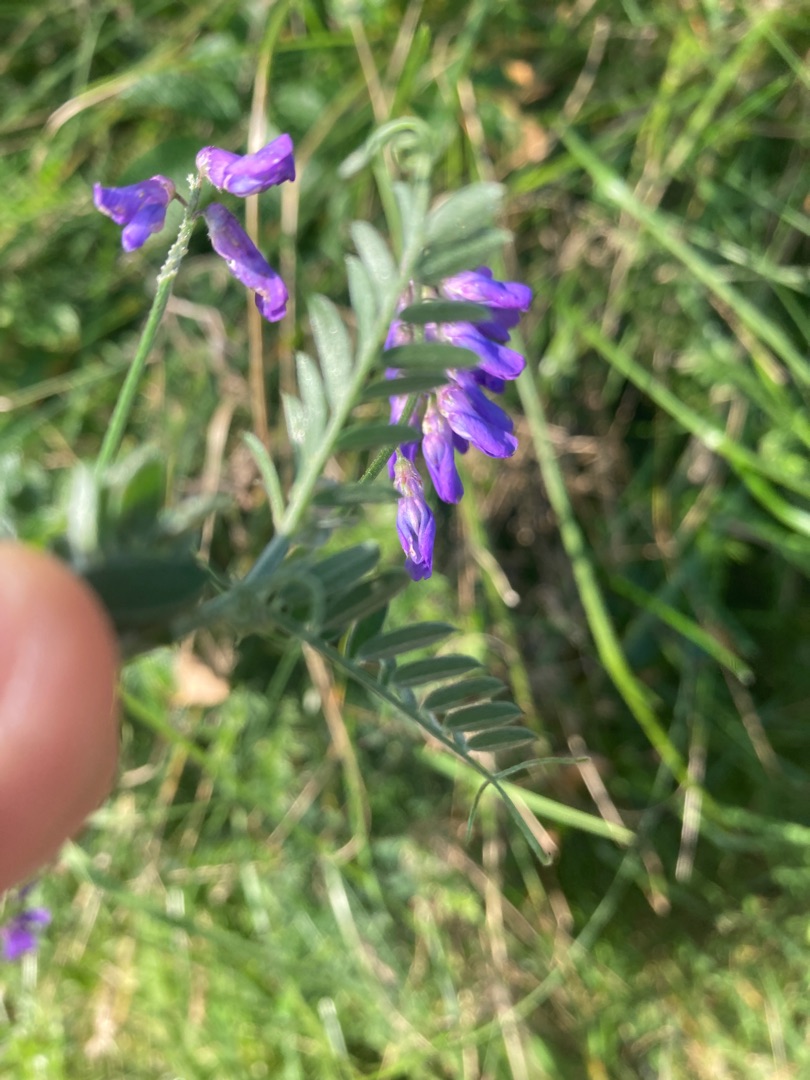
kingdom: Plantae
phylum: Tracheophyta
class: Magnoliopsida
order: Fabales
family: Fabaceae
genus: Vicia
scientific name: Vicia cracca
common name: Muse-vikke
